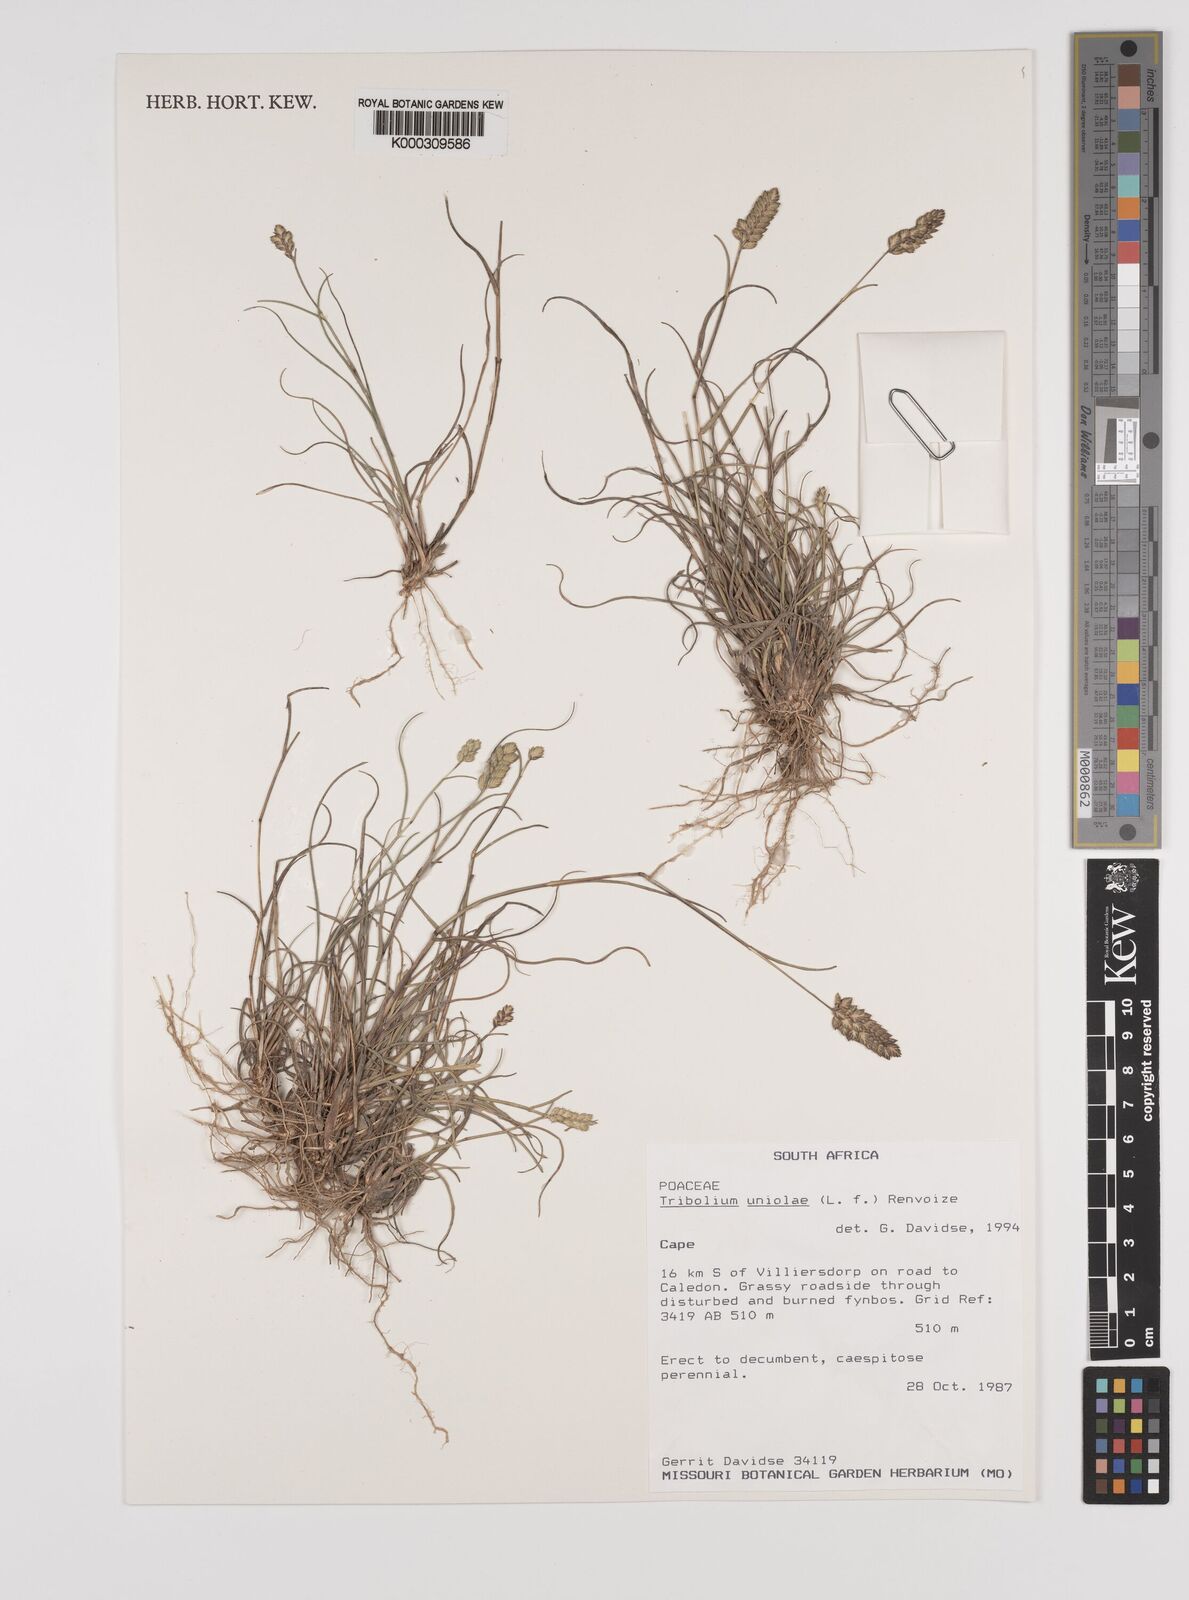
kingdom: Plantae
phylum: Tracheophyta
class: Liliopsida
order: Poales
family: Poaceae
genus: Tribolium
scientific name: Tribolium uniolae
